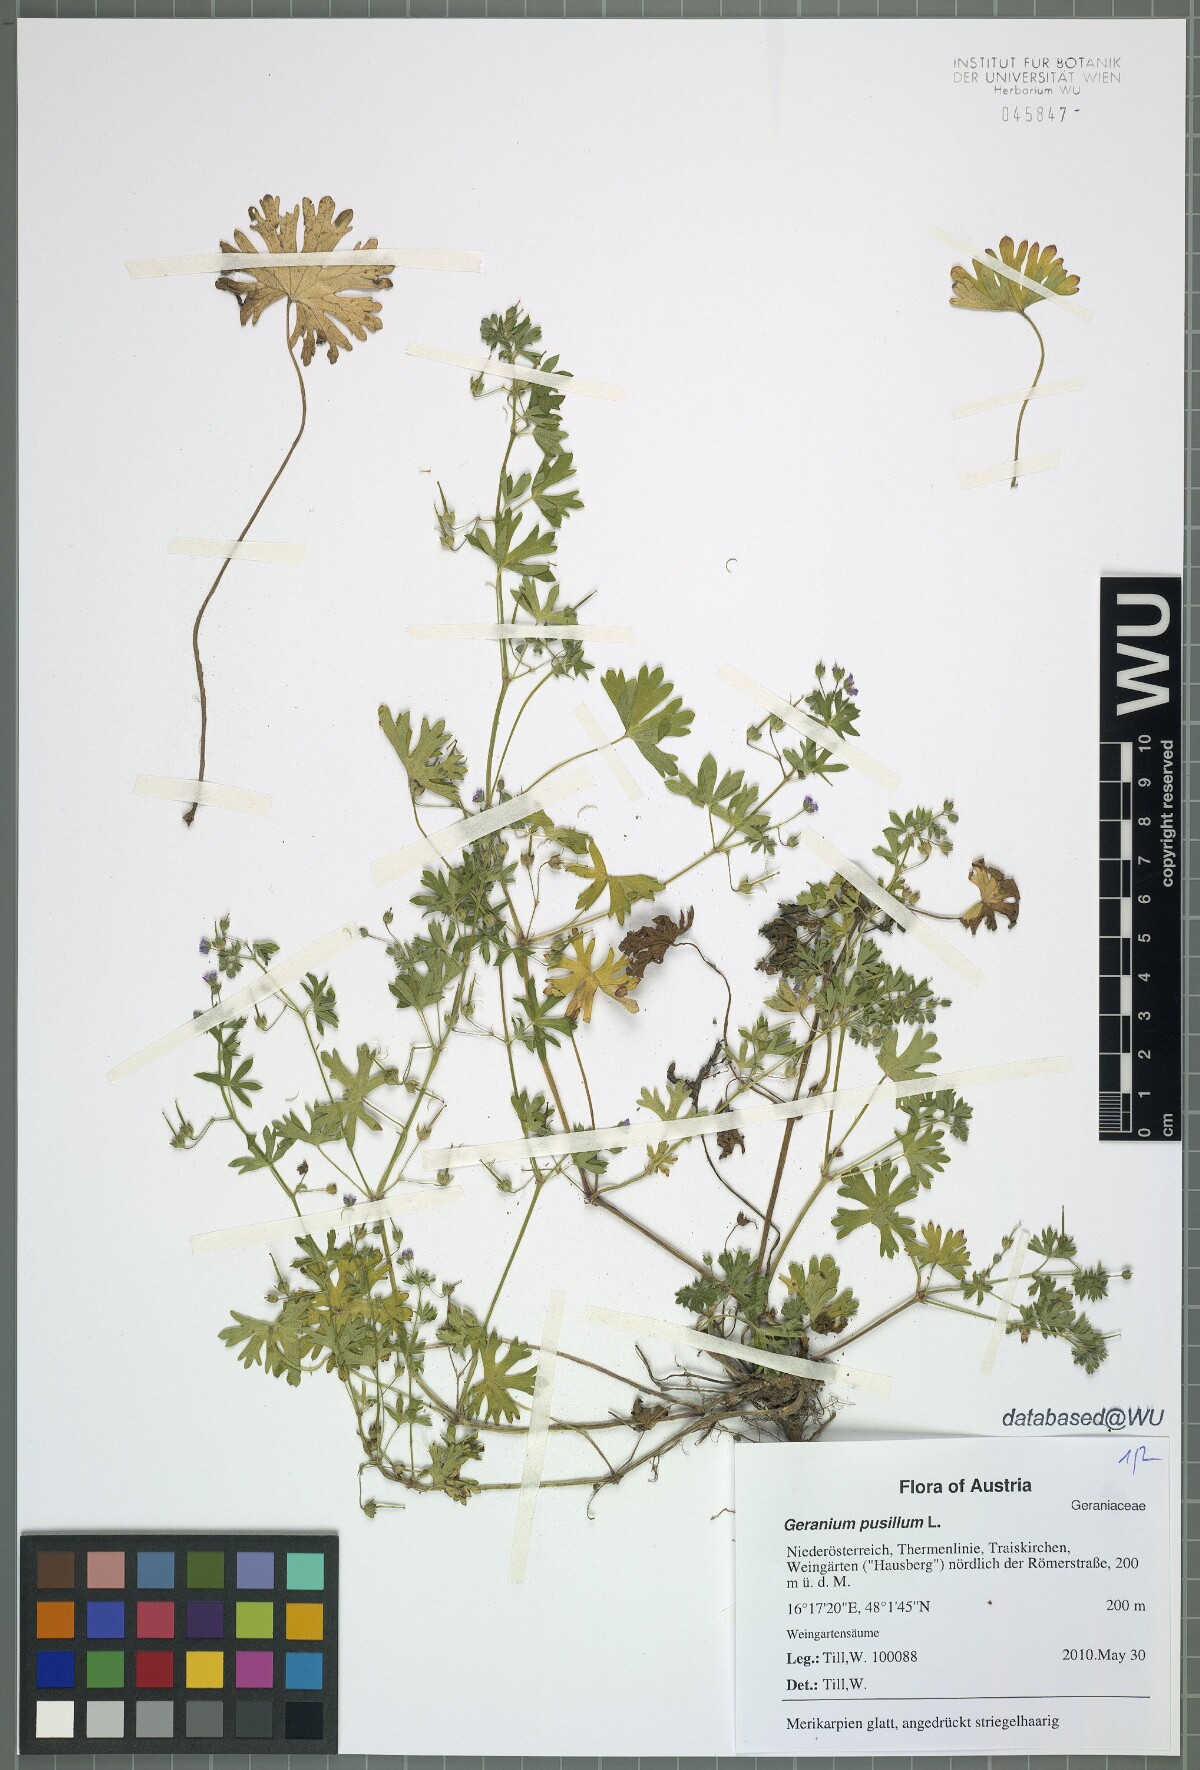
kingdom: Plantae
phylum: Tracheophyta
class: Magnoliopsida
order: Geraniales
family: Geraniaceae
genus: Geranium
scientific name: Geranium pusillum
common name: Small geranium
